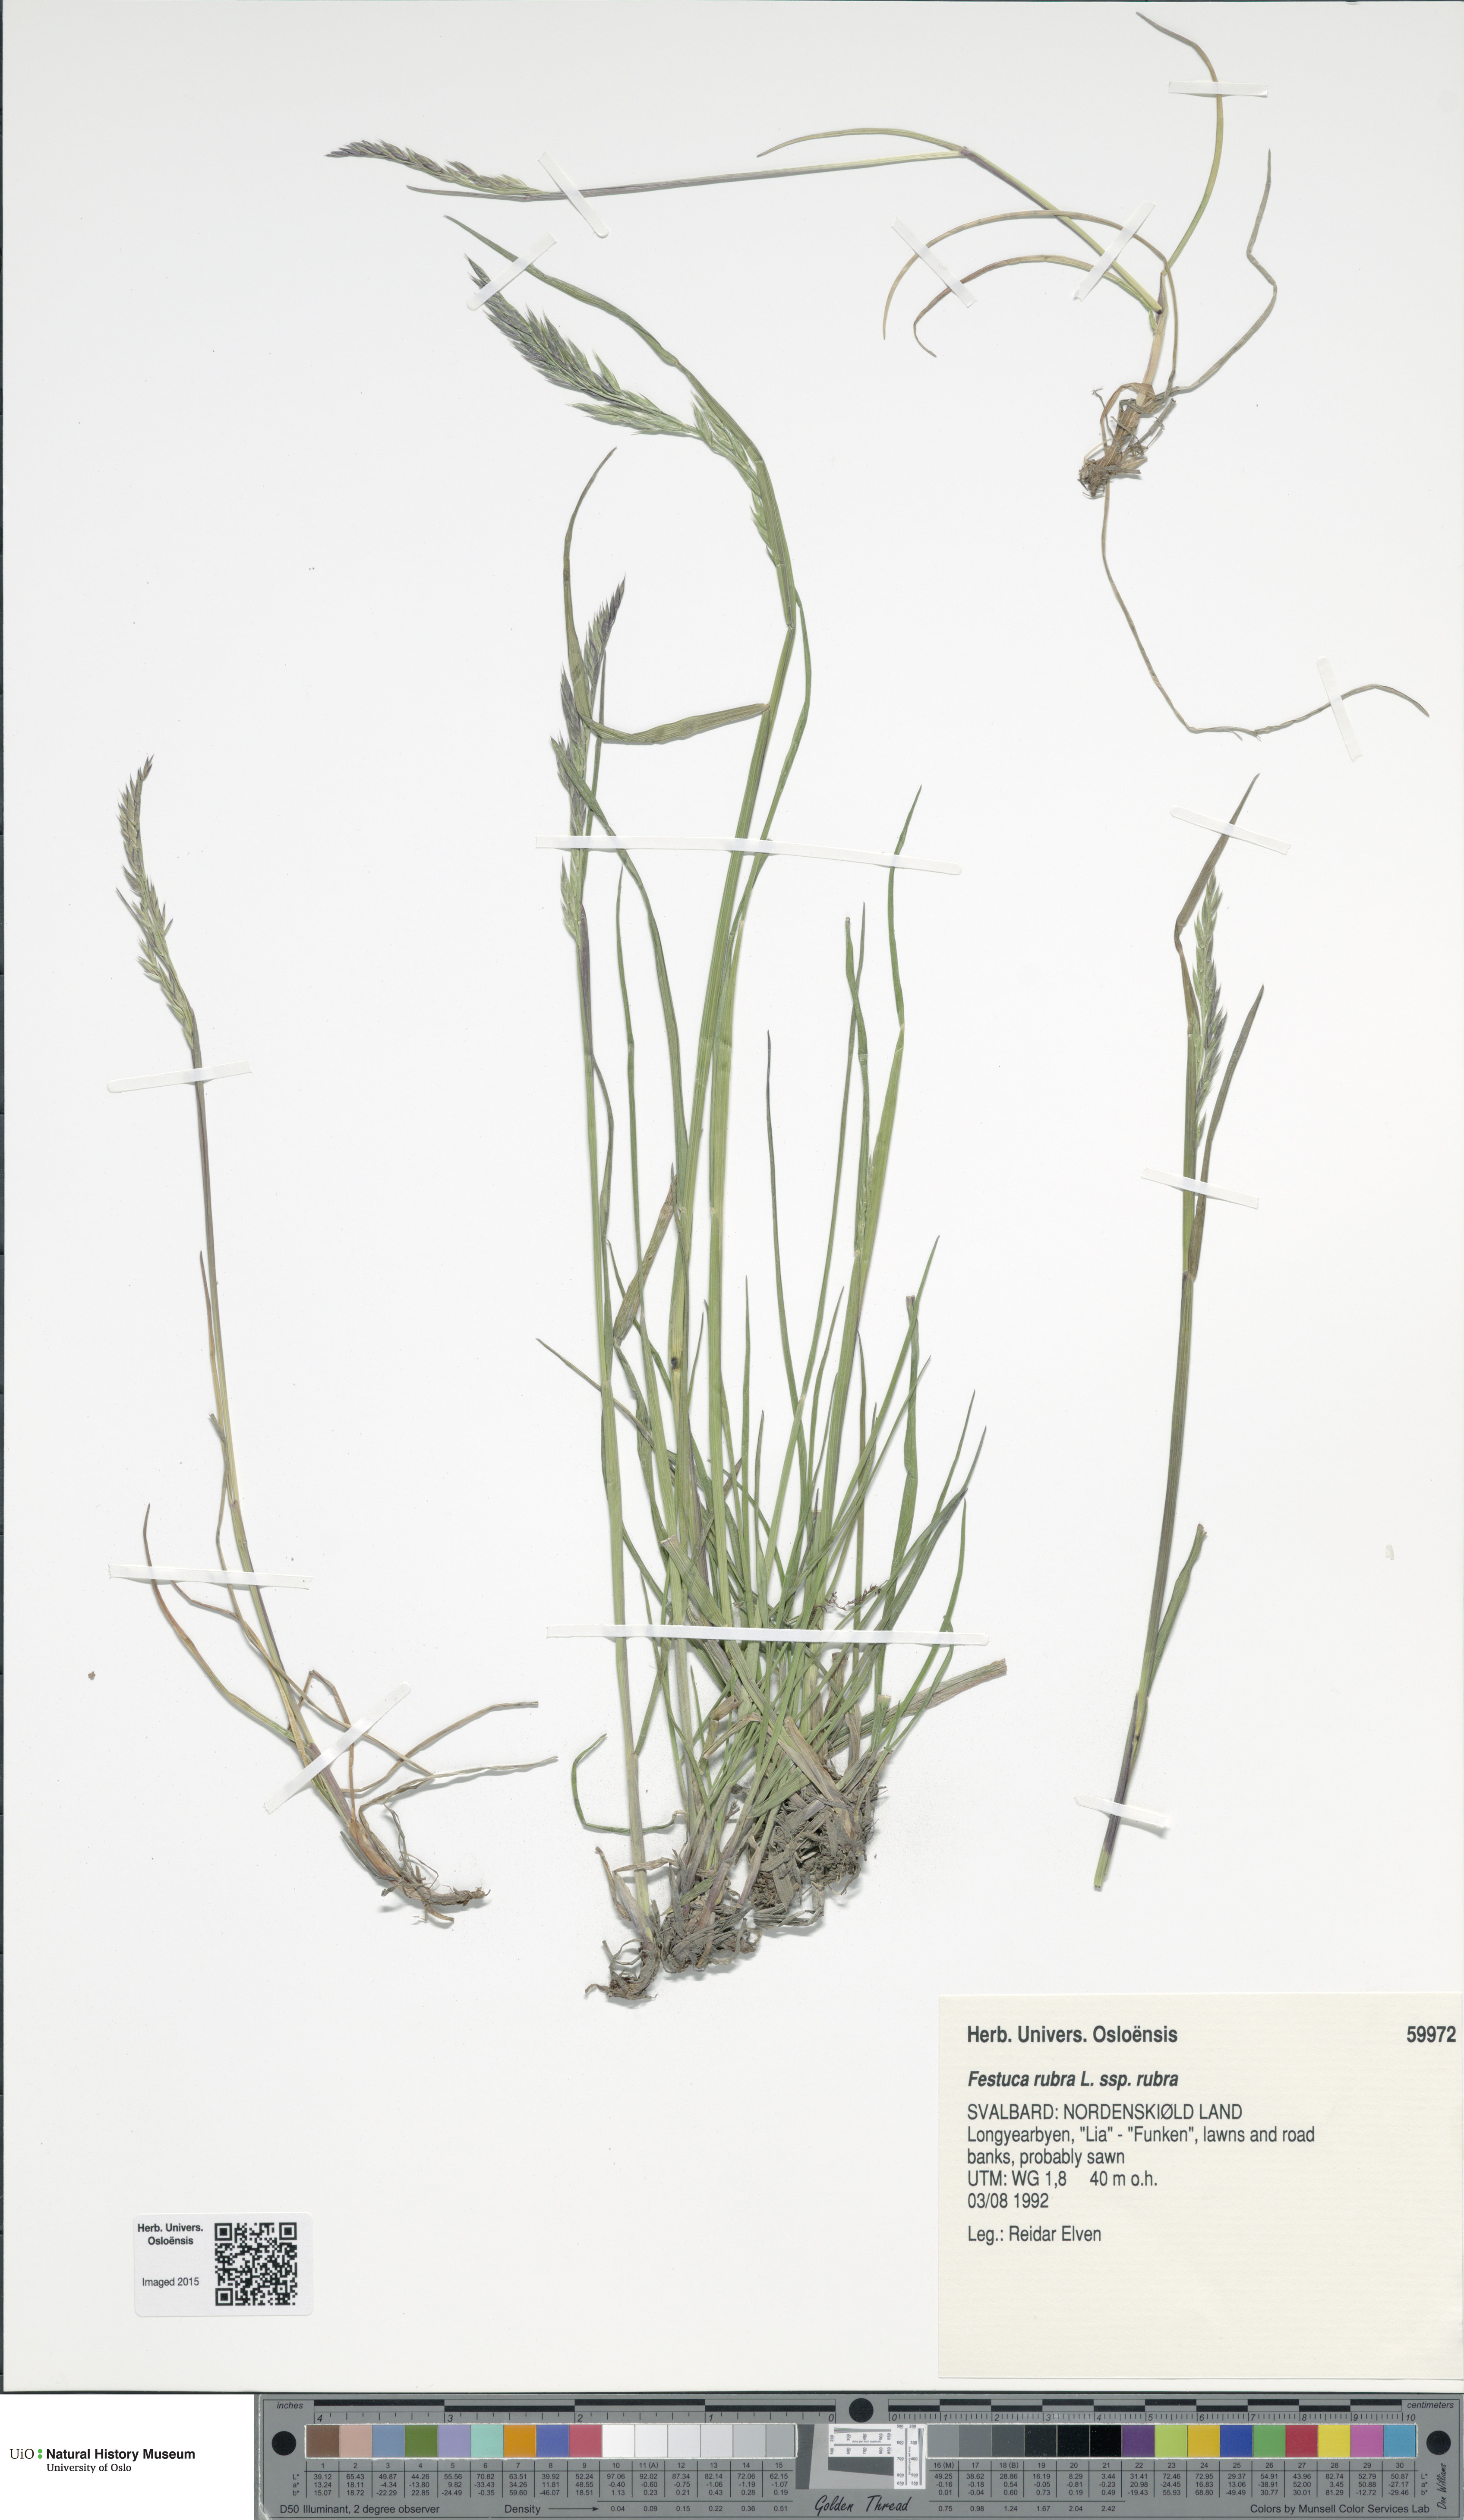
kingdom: Plantae
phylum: Tracheophyta
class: Liliopsida
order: Poales
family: Poaceae
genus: Festuca
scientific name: Festuca rubra
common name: Red fescue
